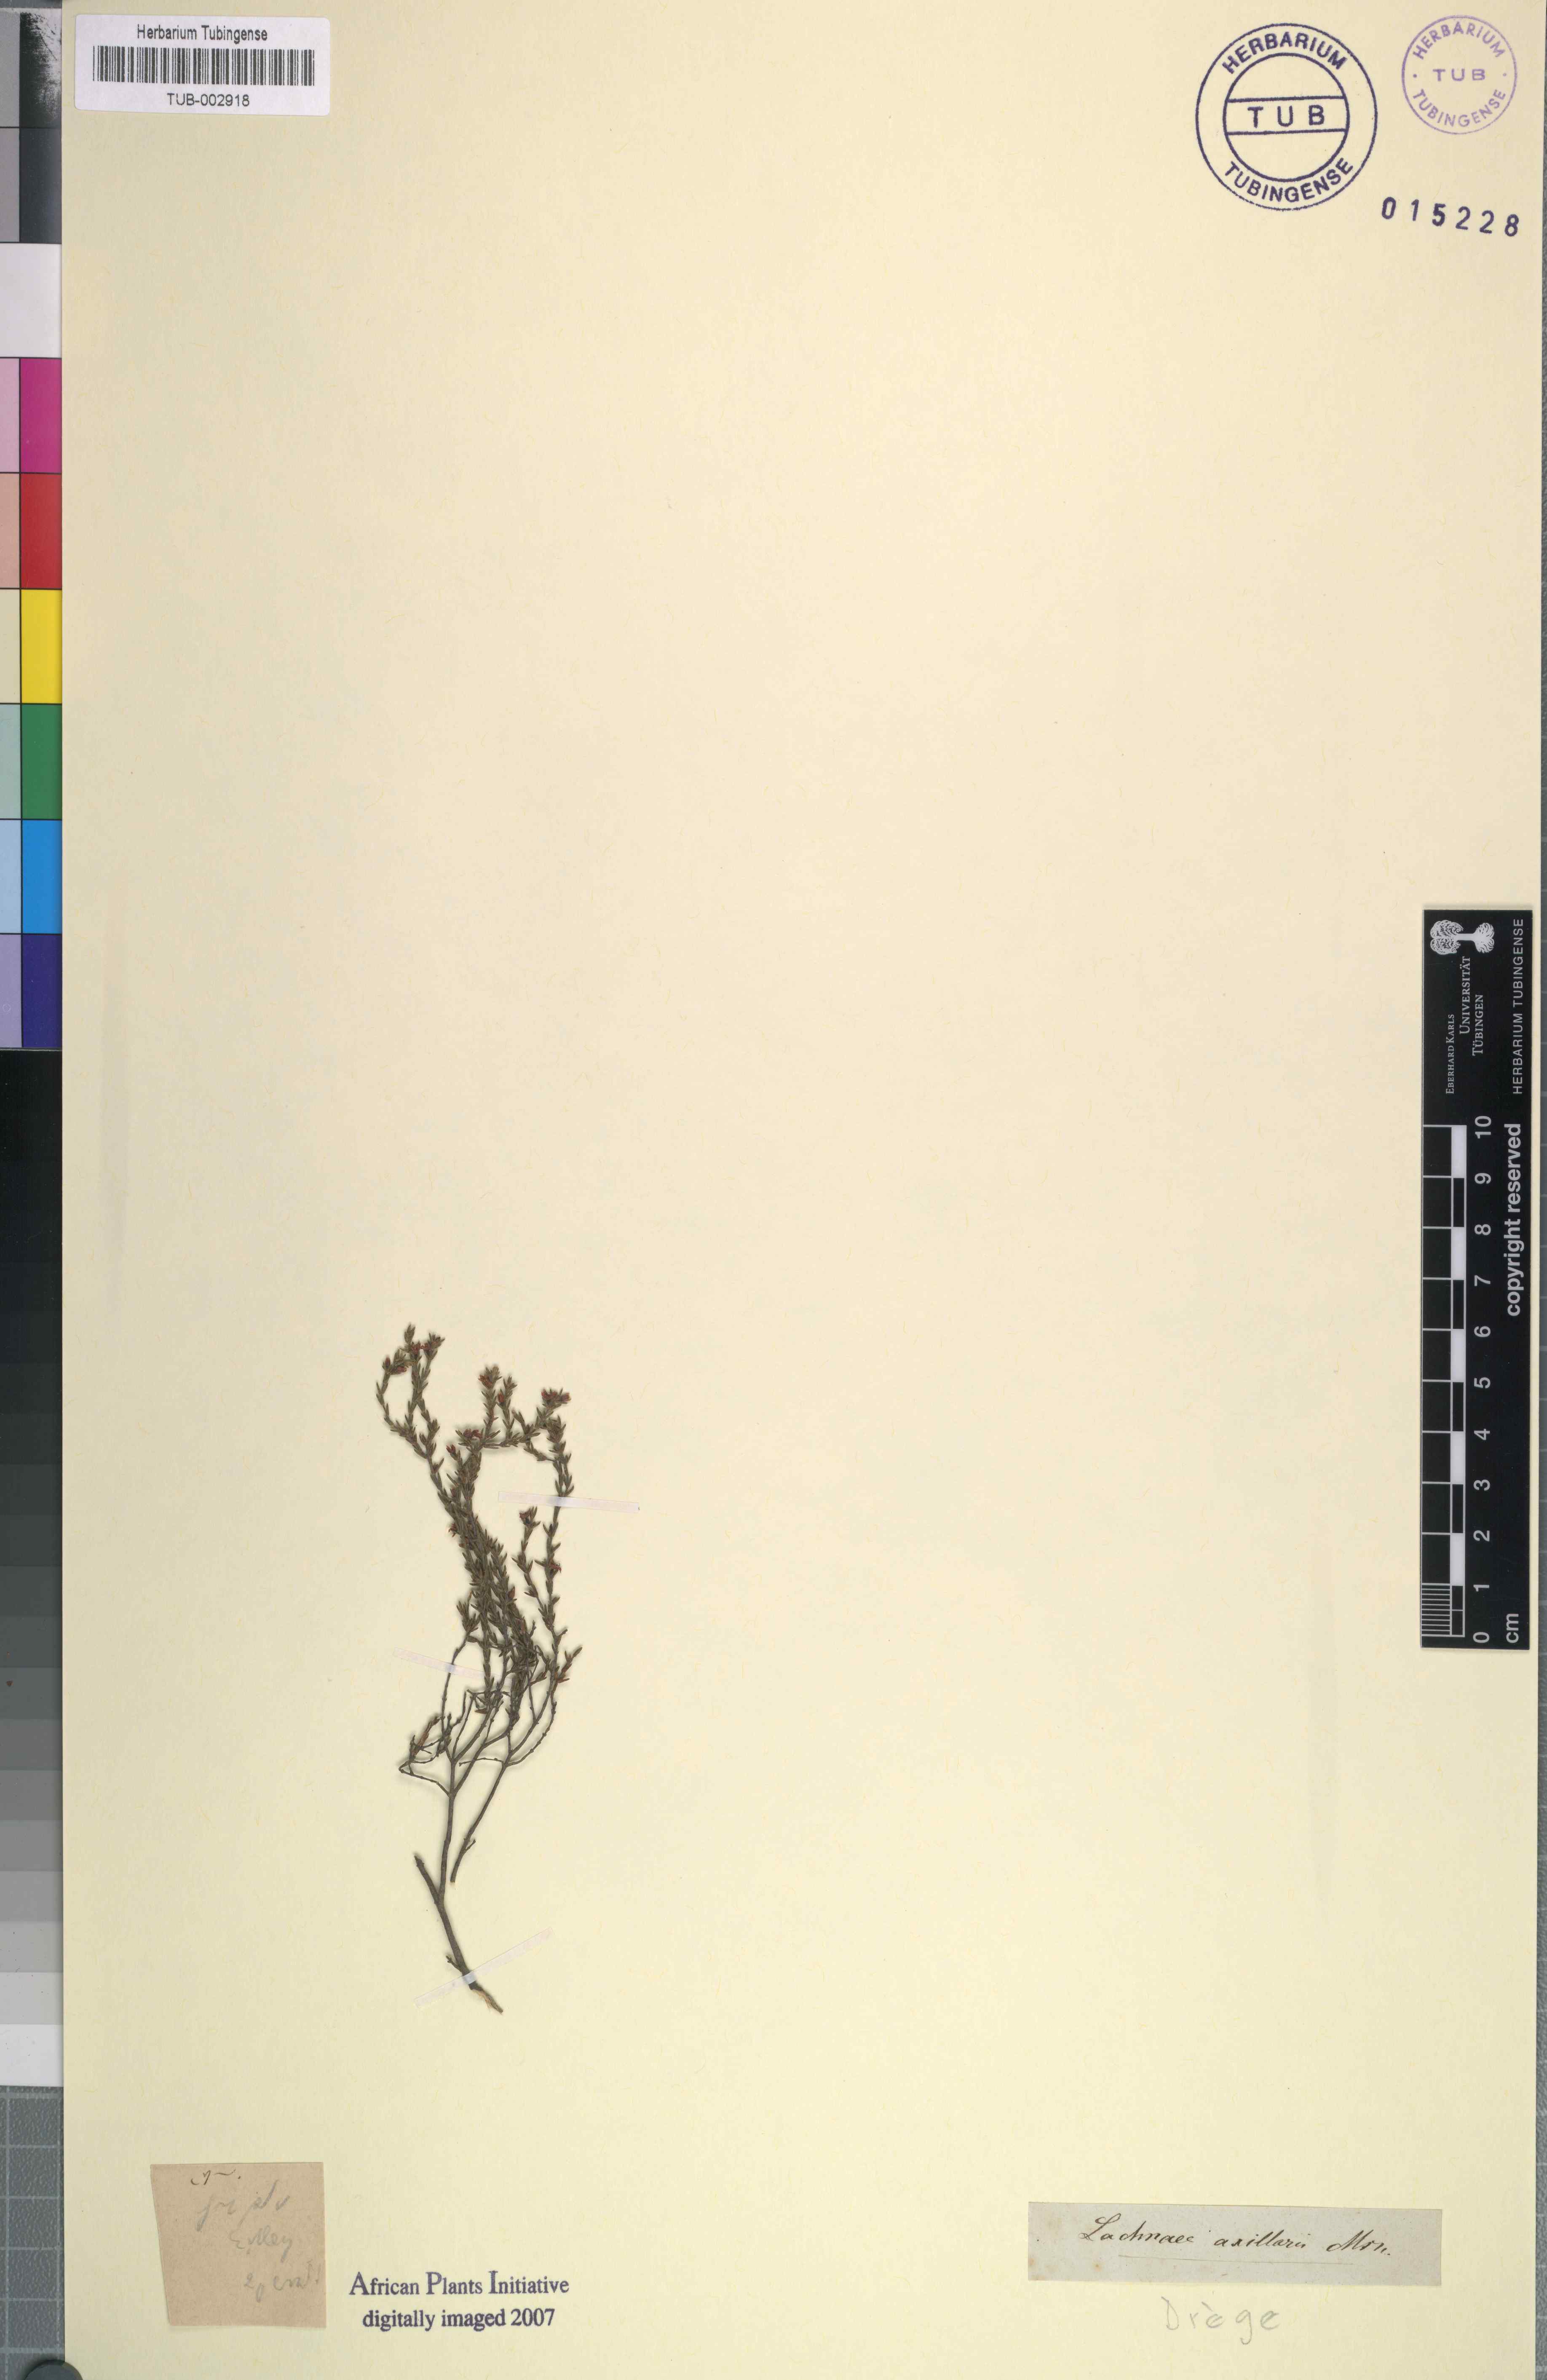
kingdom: Plantae
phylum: Tracheophyta
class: Magnoliopsida
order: Malvales
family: Thymelaeaceae
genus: Lachnaea
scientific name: Lachnaea axillaris
